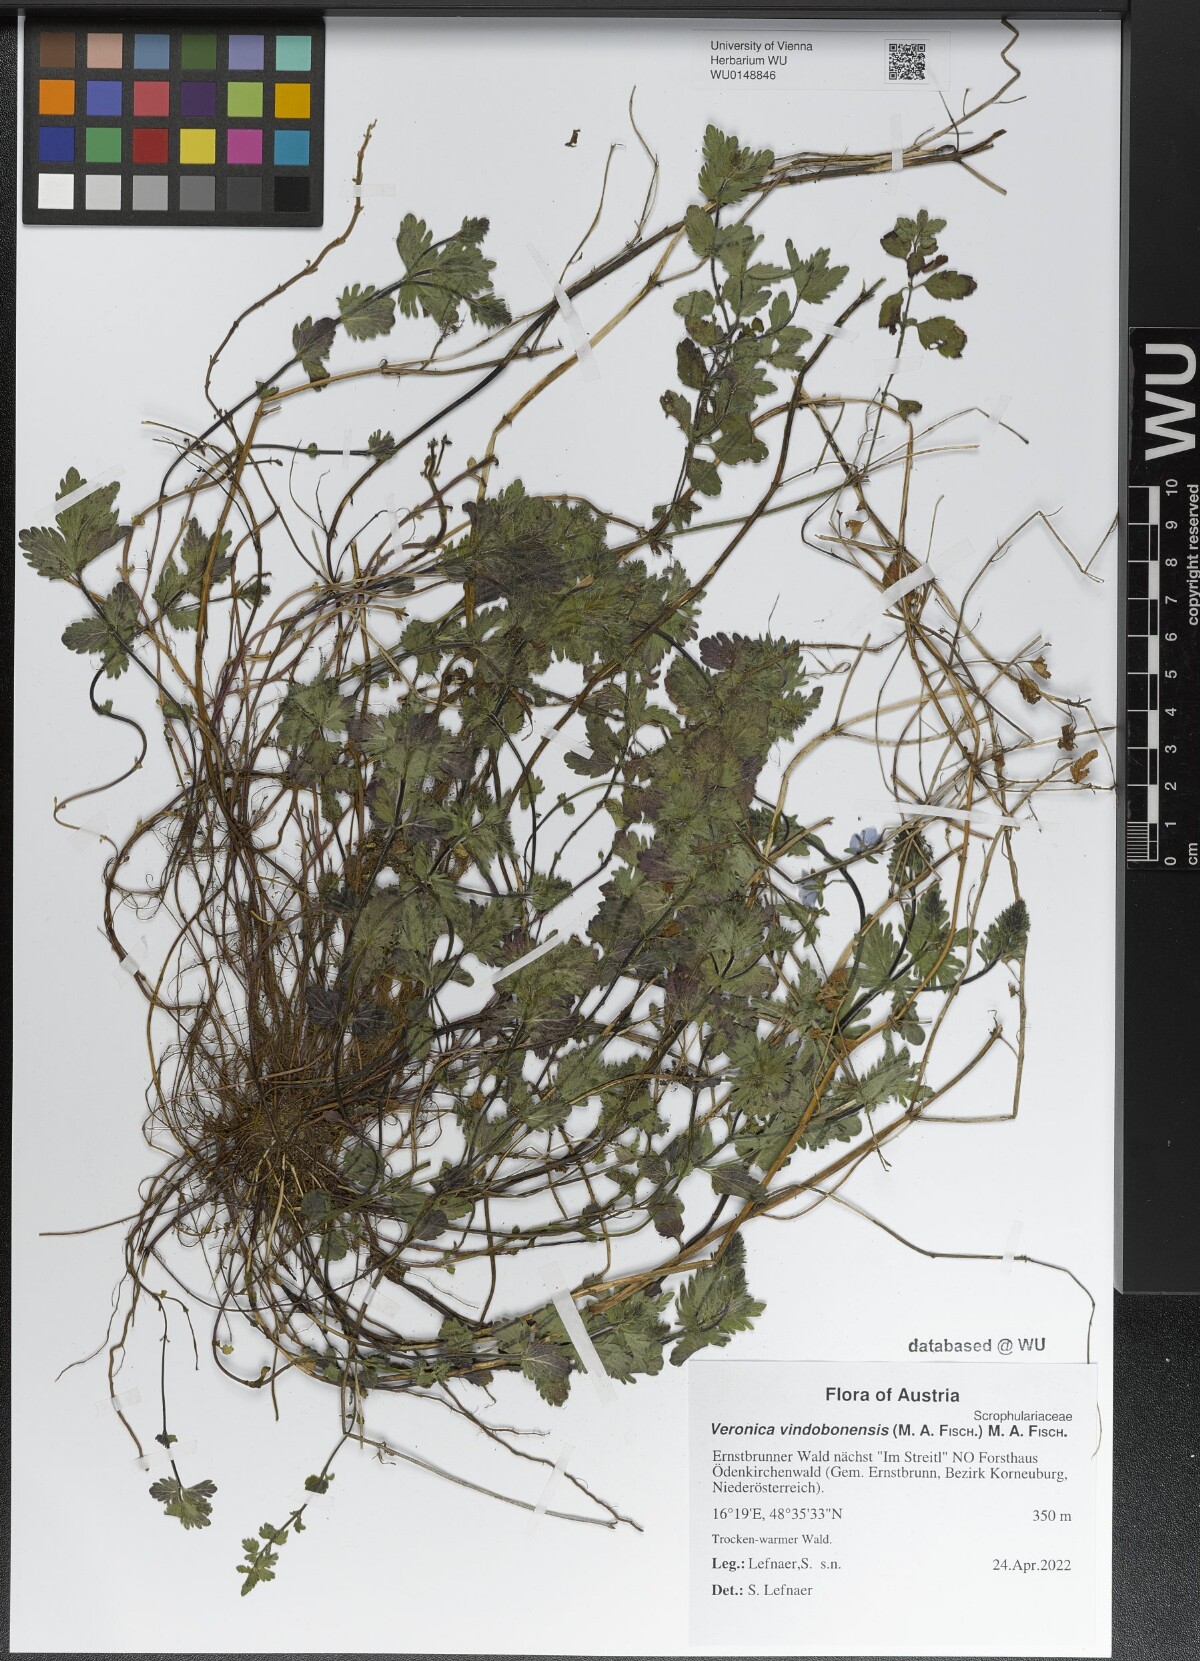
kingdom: Plantae
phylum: Tracheophyta
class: Magnoliopsida
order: Lamiales
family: Plantaginaceae
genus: Veronica
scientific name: Veronica vindobonensis
